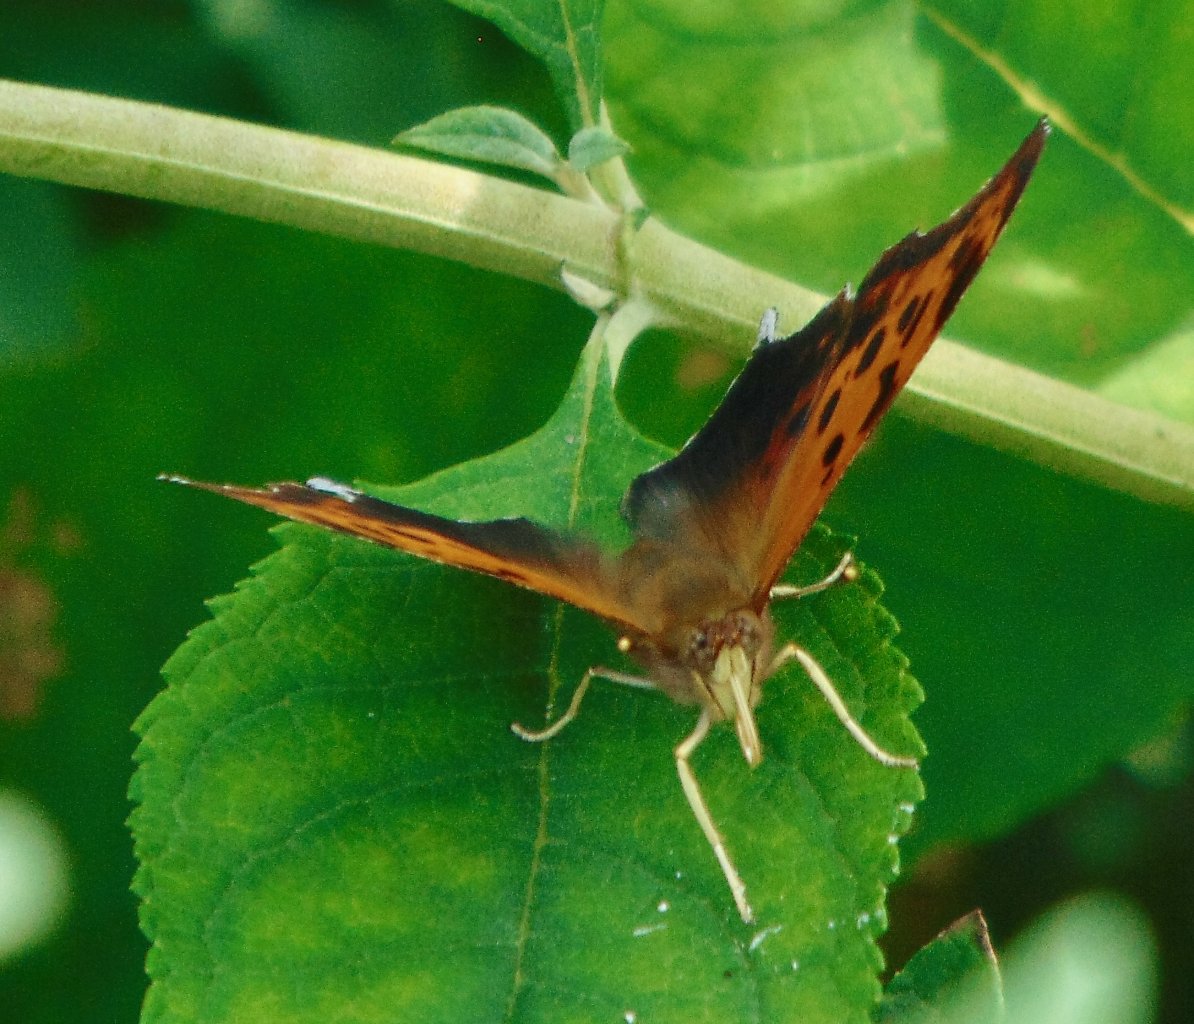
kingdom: Animalia
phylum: Arthropoda
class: Insecta
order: Lepidoptera
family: Nymphalidae
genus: Polygonia
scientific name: Polygonia interrogationis
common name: Question Mark
